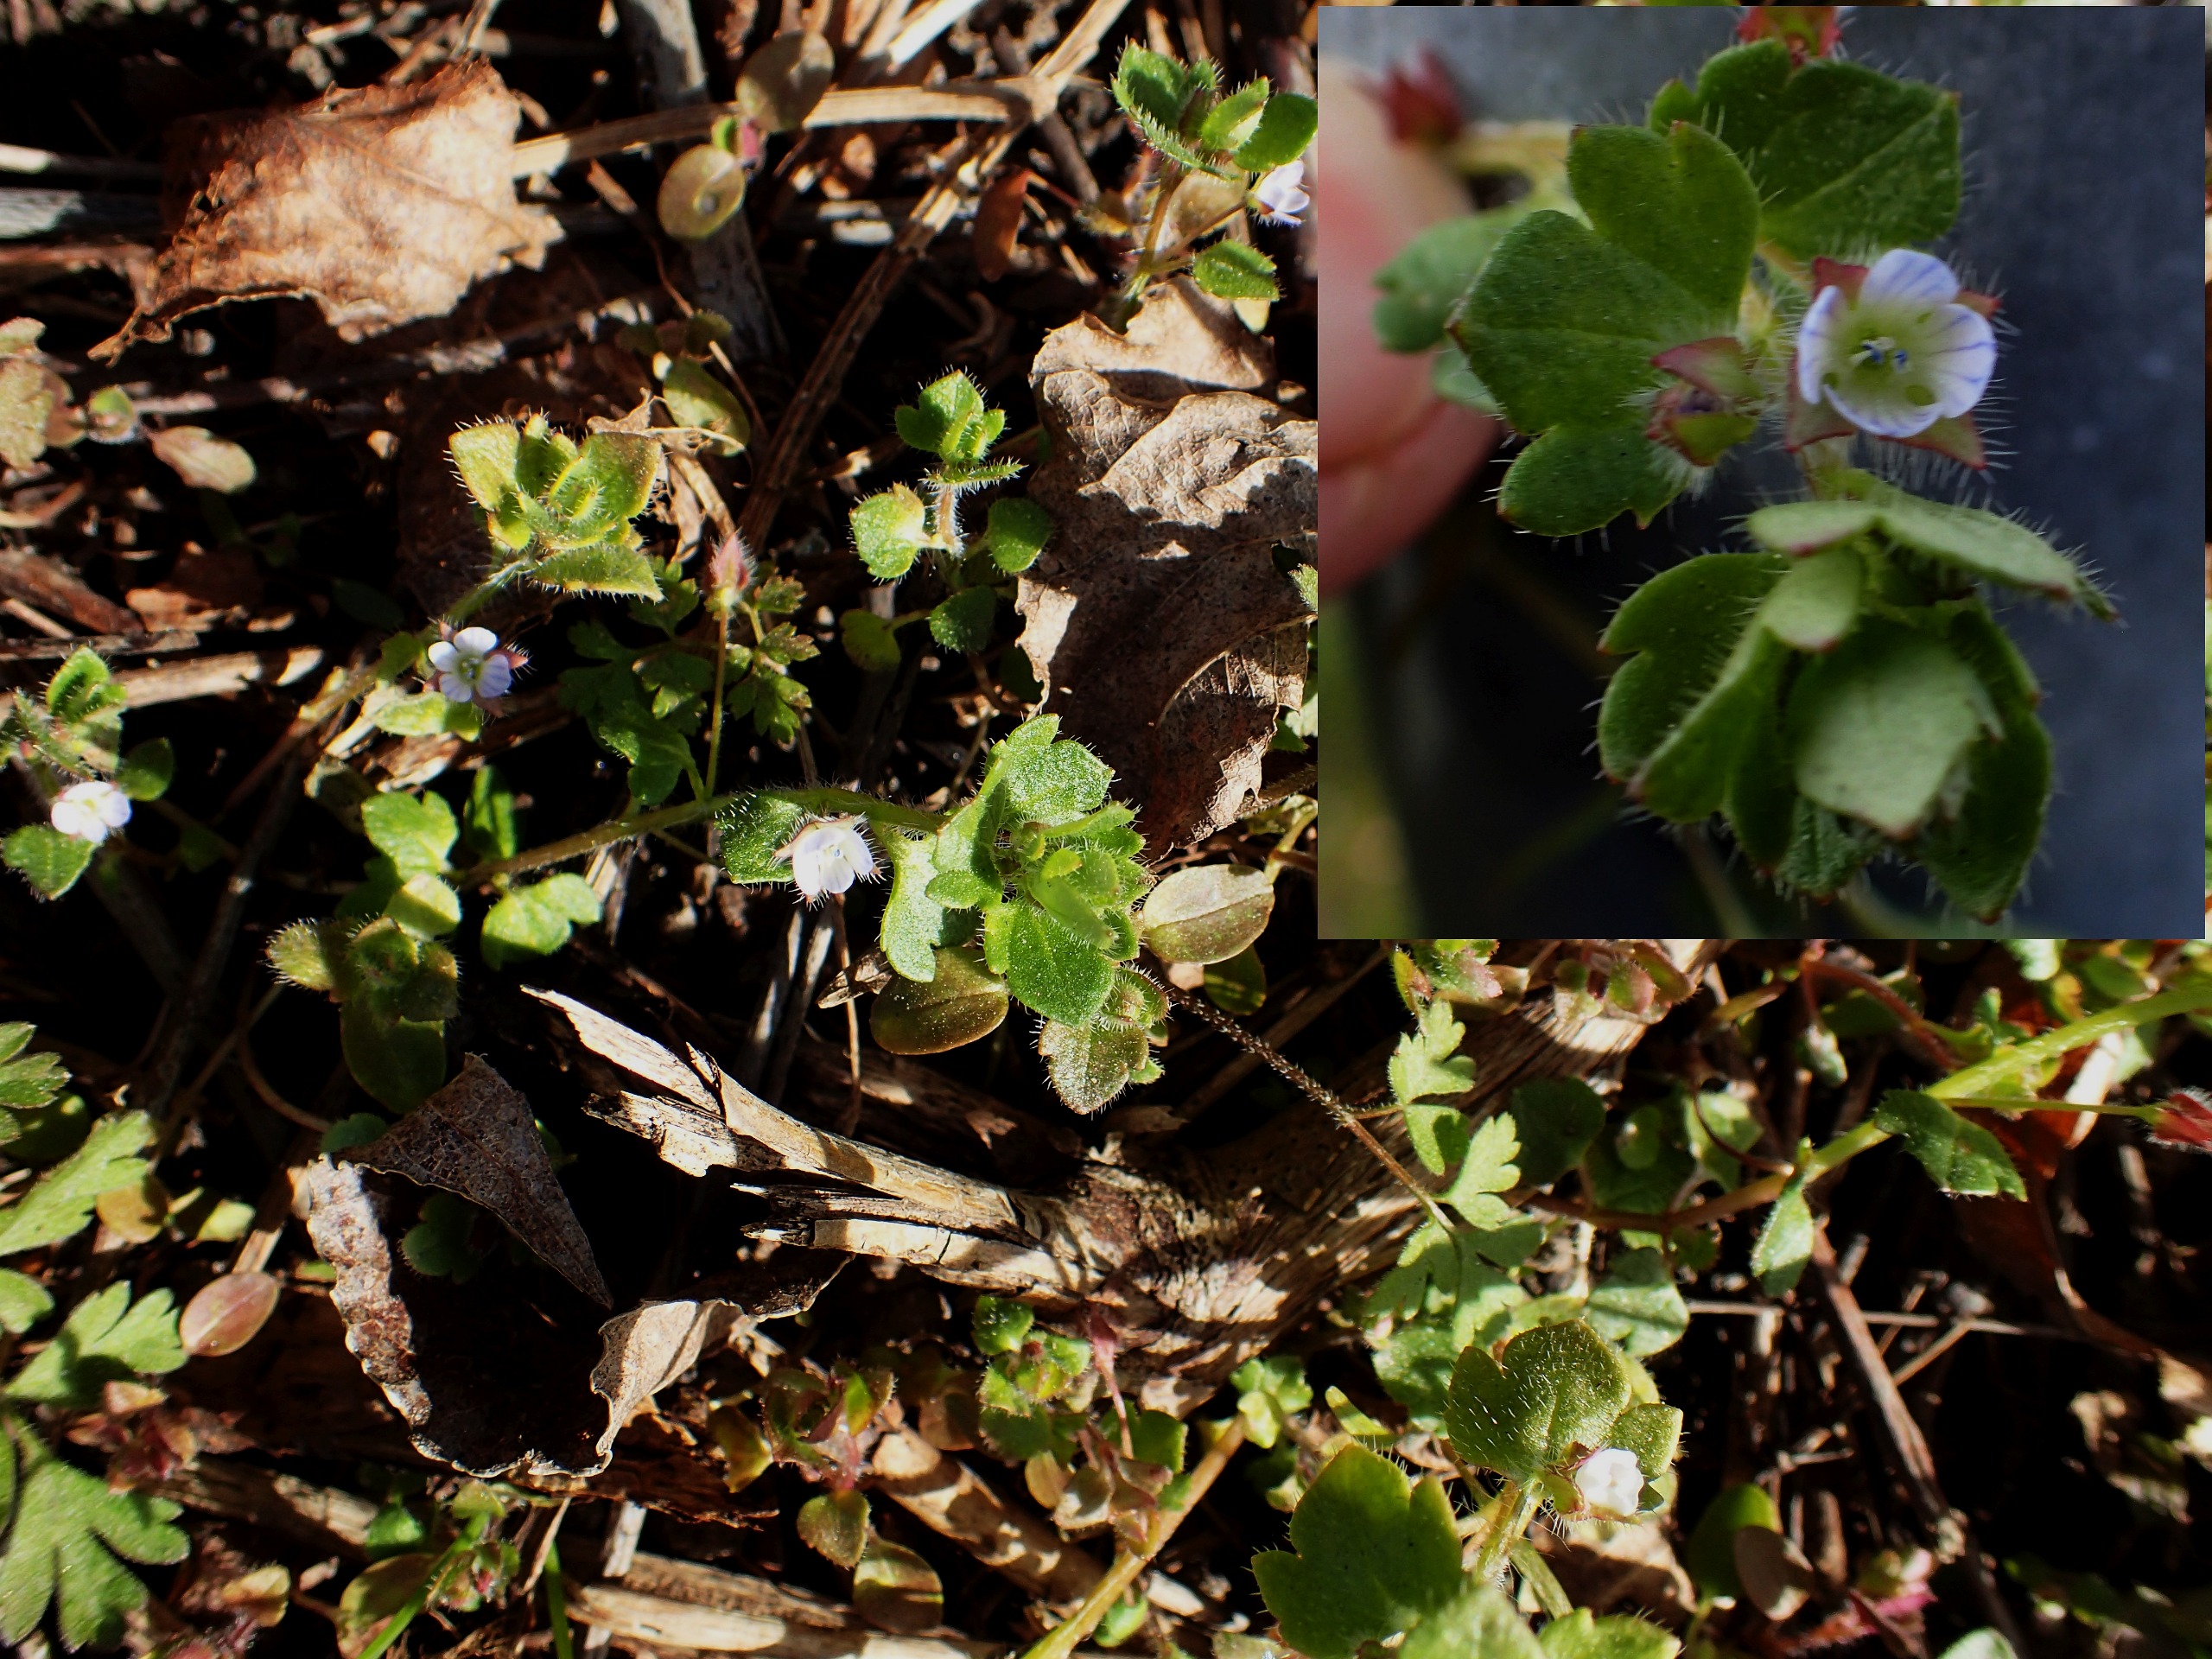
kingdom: Plantae
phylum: Tracheophyta
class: Magnoliopsida
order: Lamiales
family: Plantaginaceae
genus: Veronica
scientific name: Veronica sublobata
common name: Krat-ærenpris
